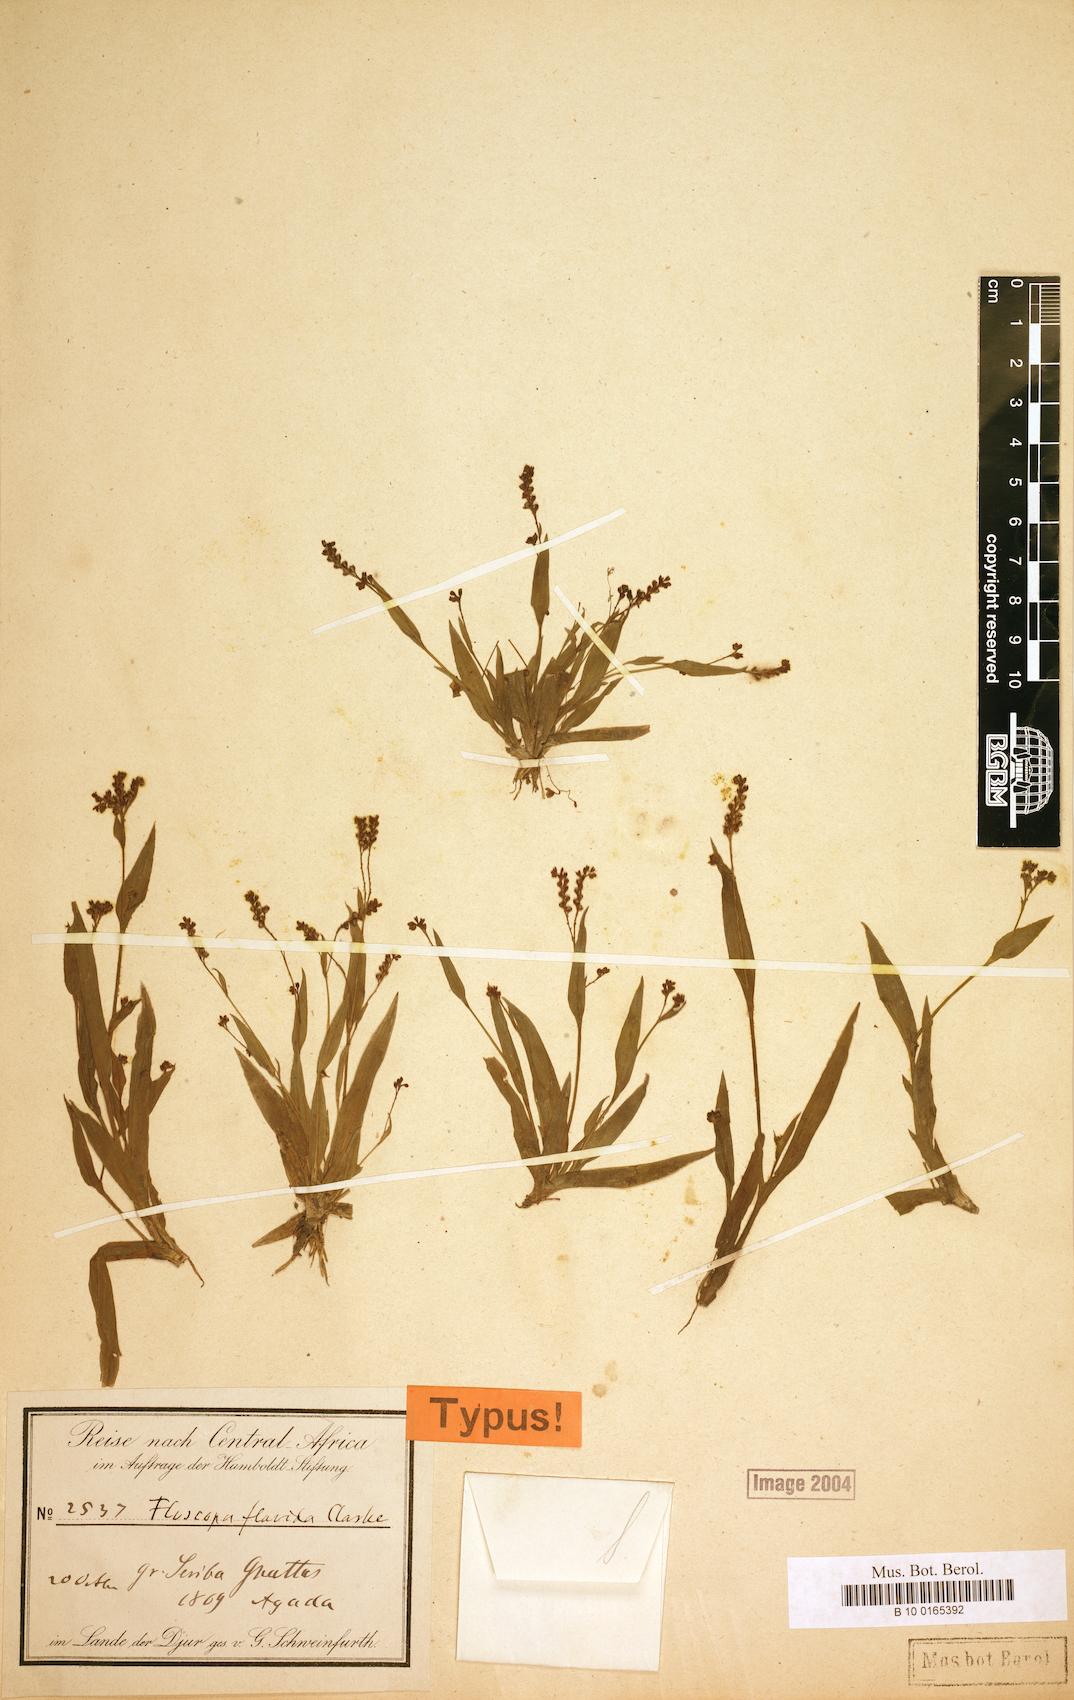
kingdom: Plantae
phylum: Tracheophyta
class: Liliopsida
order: Commelinales
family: Commelinaceae
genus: Floscopa
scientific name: Floscopa flavida
